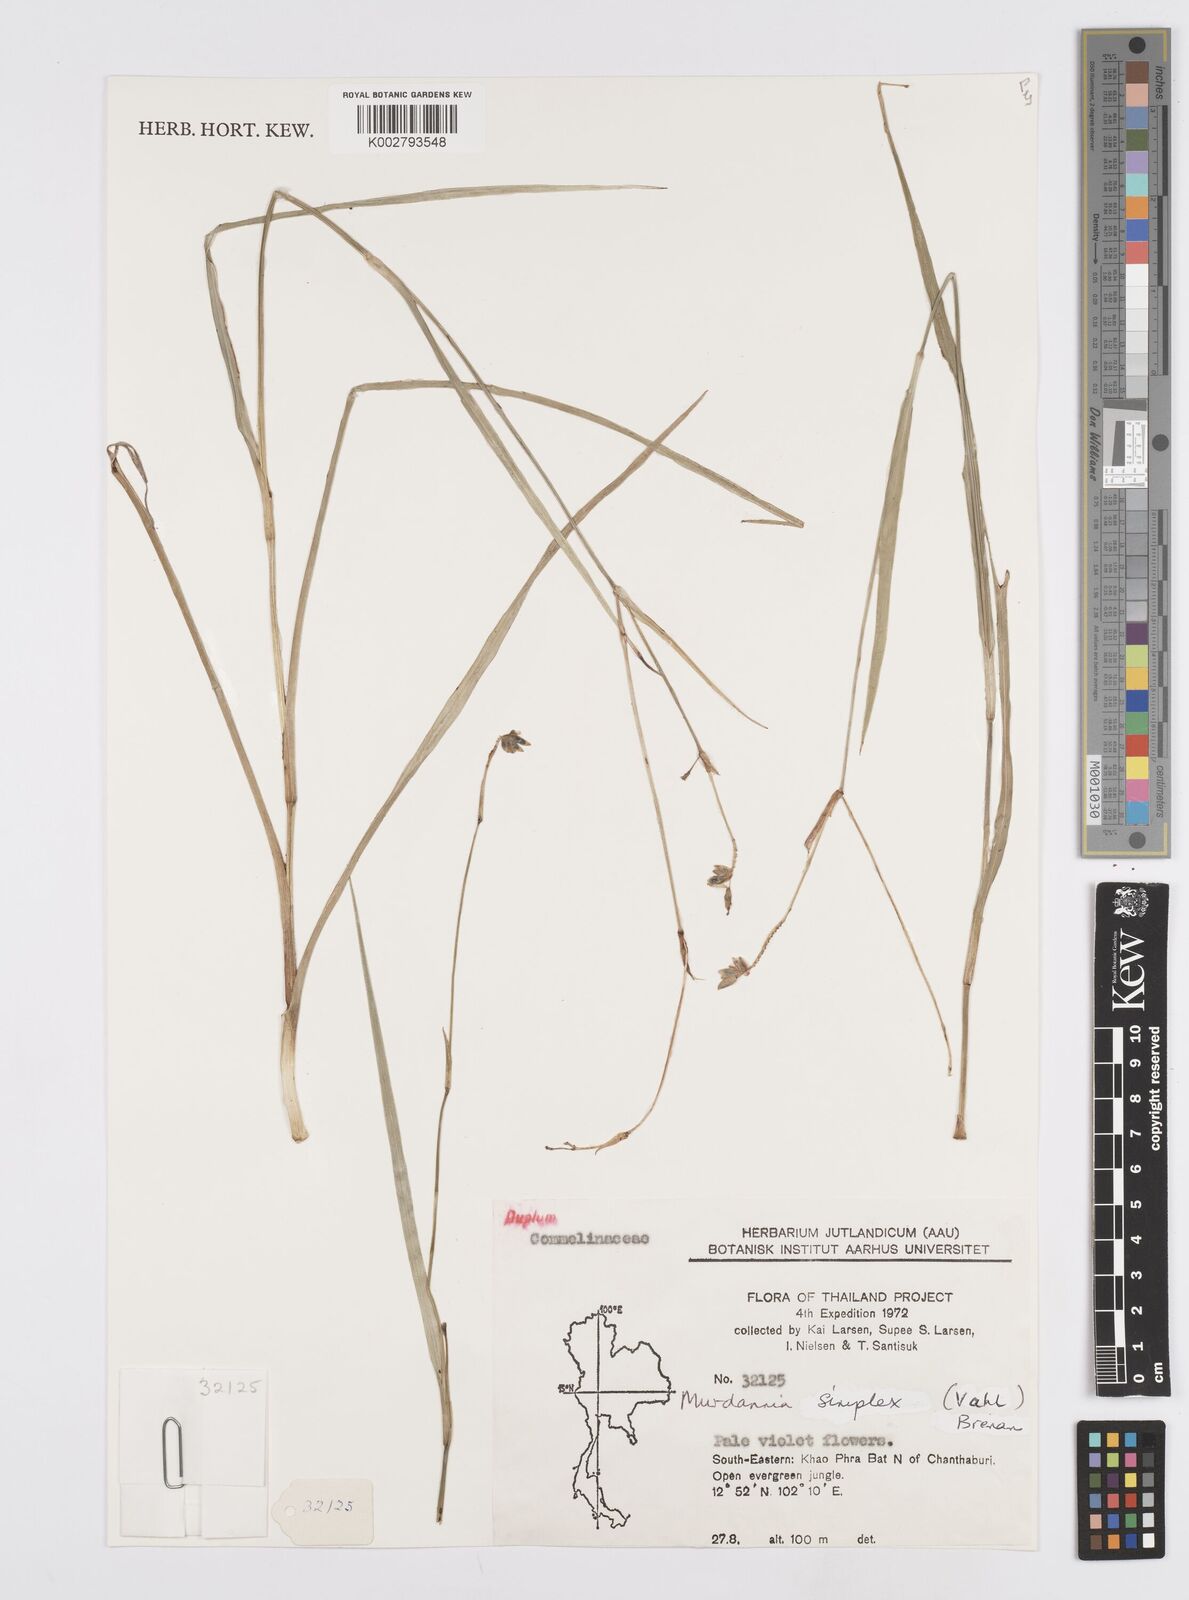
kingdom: Plantae
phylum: Tracheophyta
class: Liliopsida
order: Commelinales
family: Commelinaceae
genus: Murdannia
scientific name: Murdannia simplex
